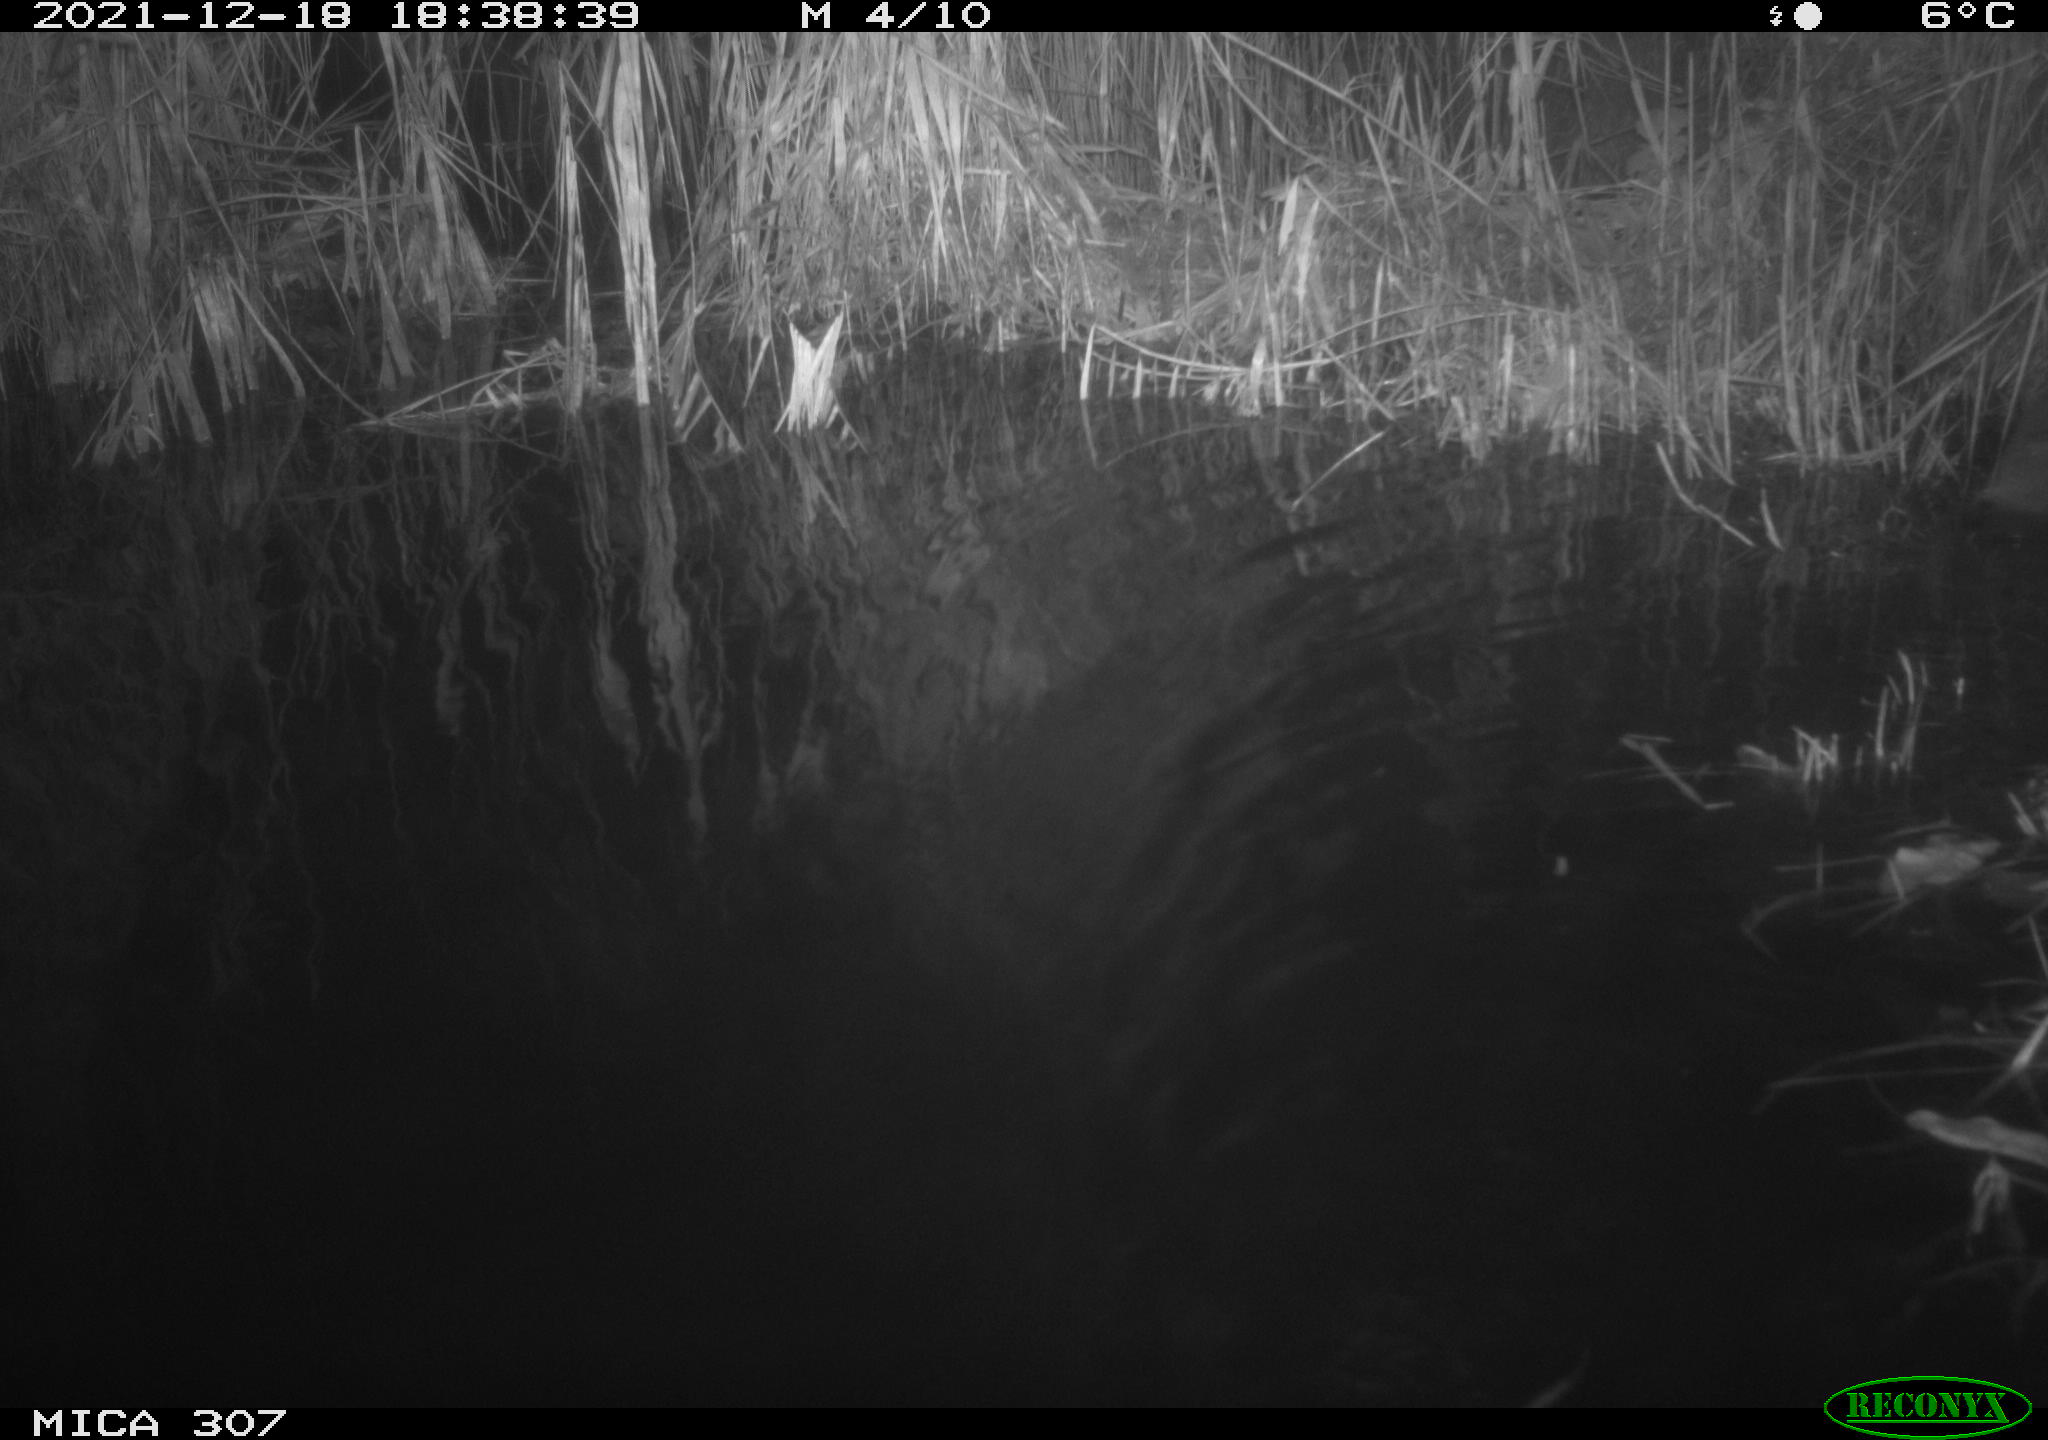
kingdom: Animalia
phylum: Chordata
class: Mammalia
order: Rodentia
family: Muridae
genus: Rattus
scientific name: Rattus norvegicus
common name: Brown rat
